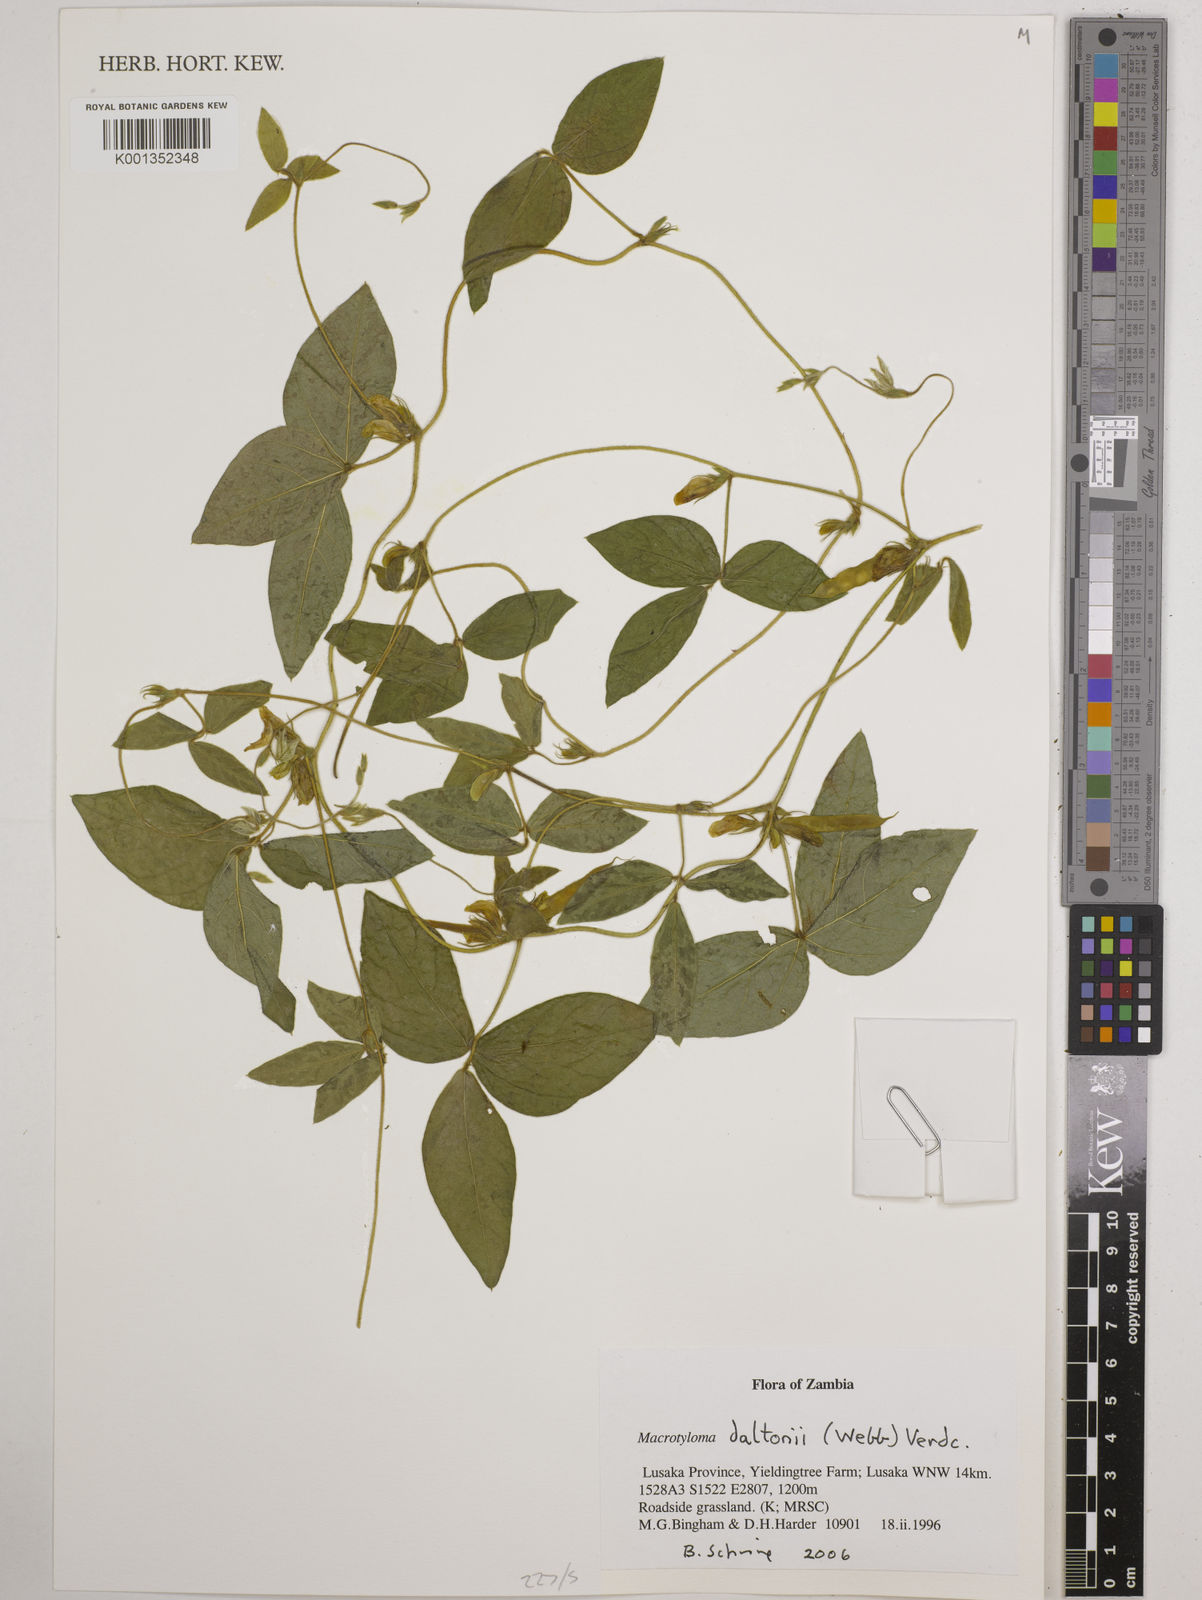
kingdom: Plantae
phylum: Tracheophyta
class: Magnoliopsida
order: Fabales
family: Fabaceae
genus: Macrotyloma
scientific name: Macrotyloma daltonii
